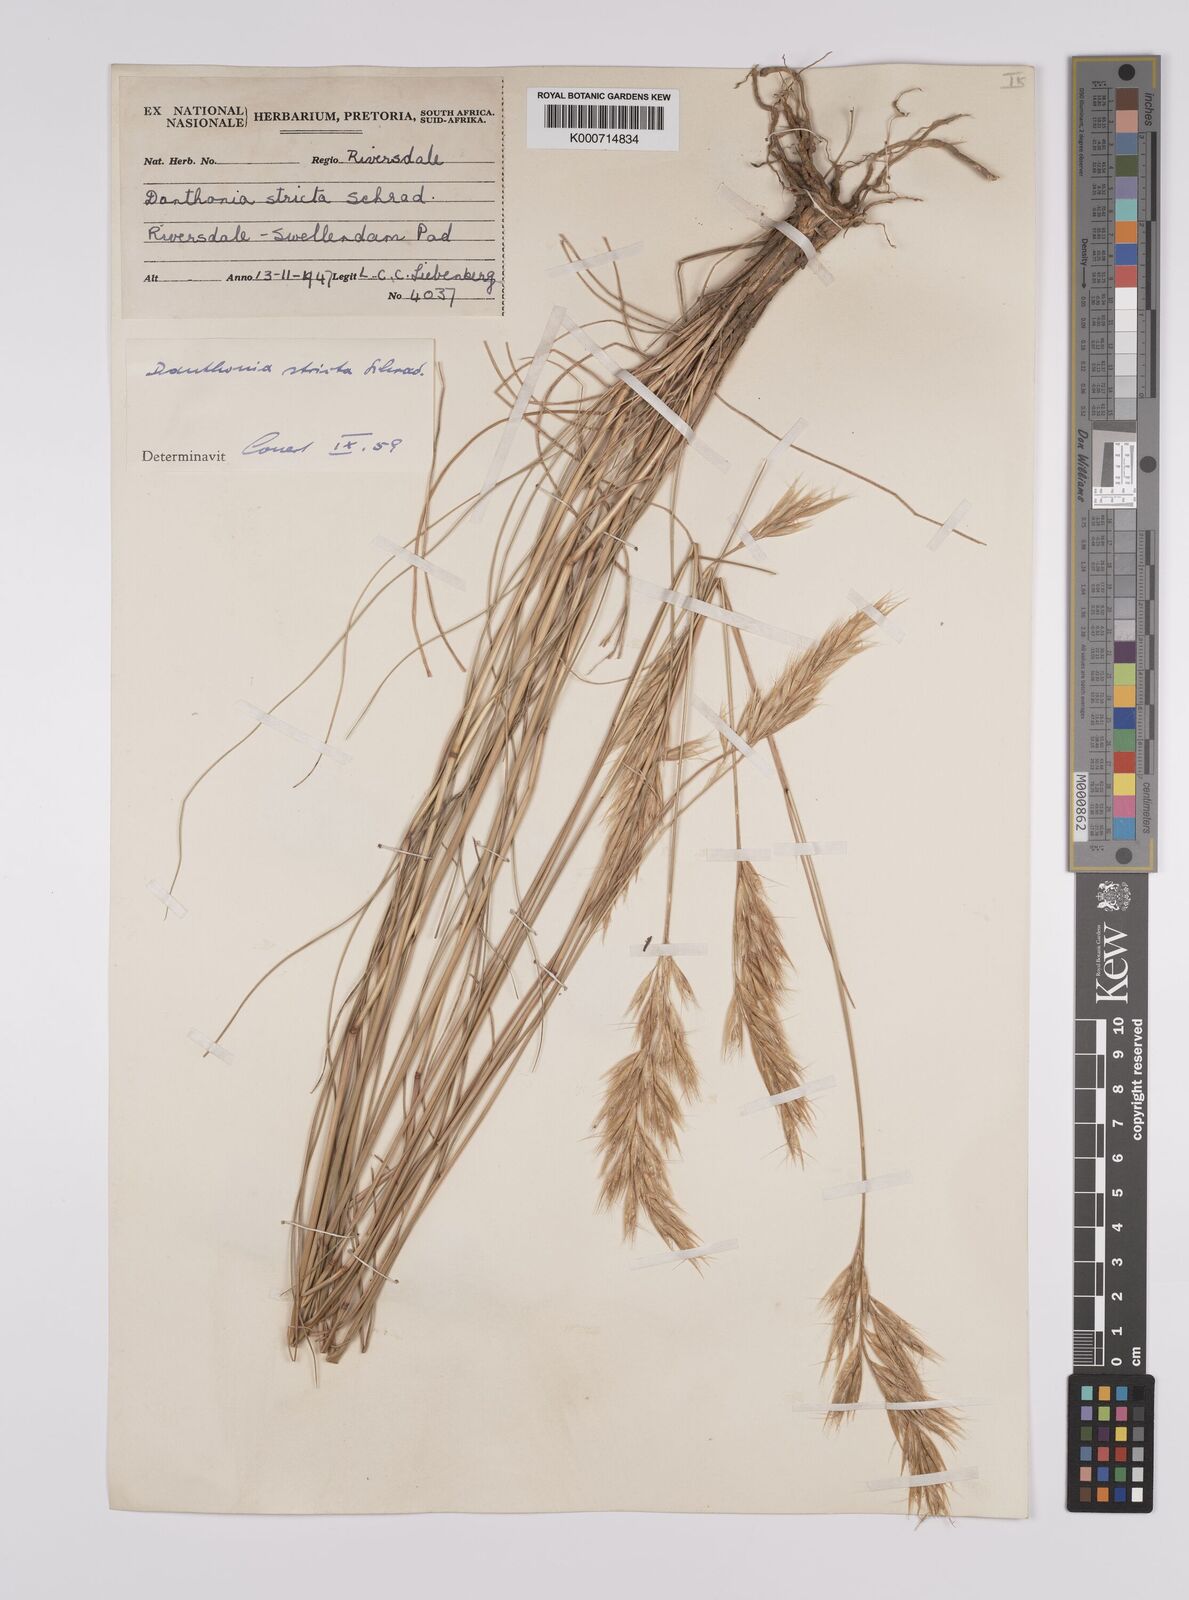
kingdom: Plantae
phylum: Tracheophyta
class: Liliopsida
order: Poales
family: Poaceae
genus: Rytidosperma
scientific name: Rytidosperma
